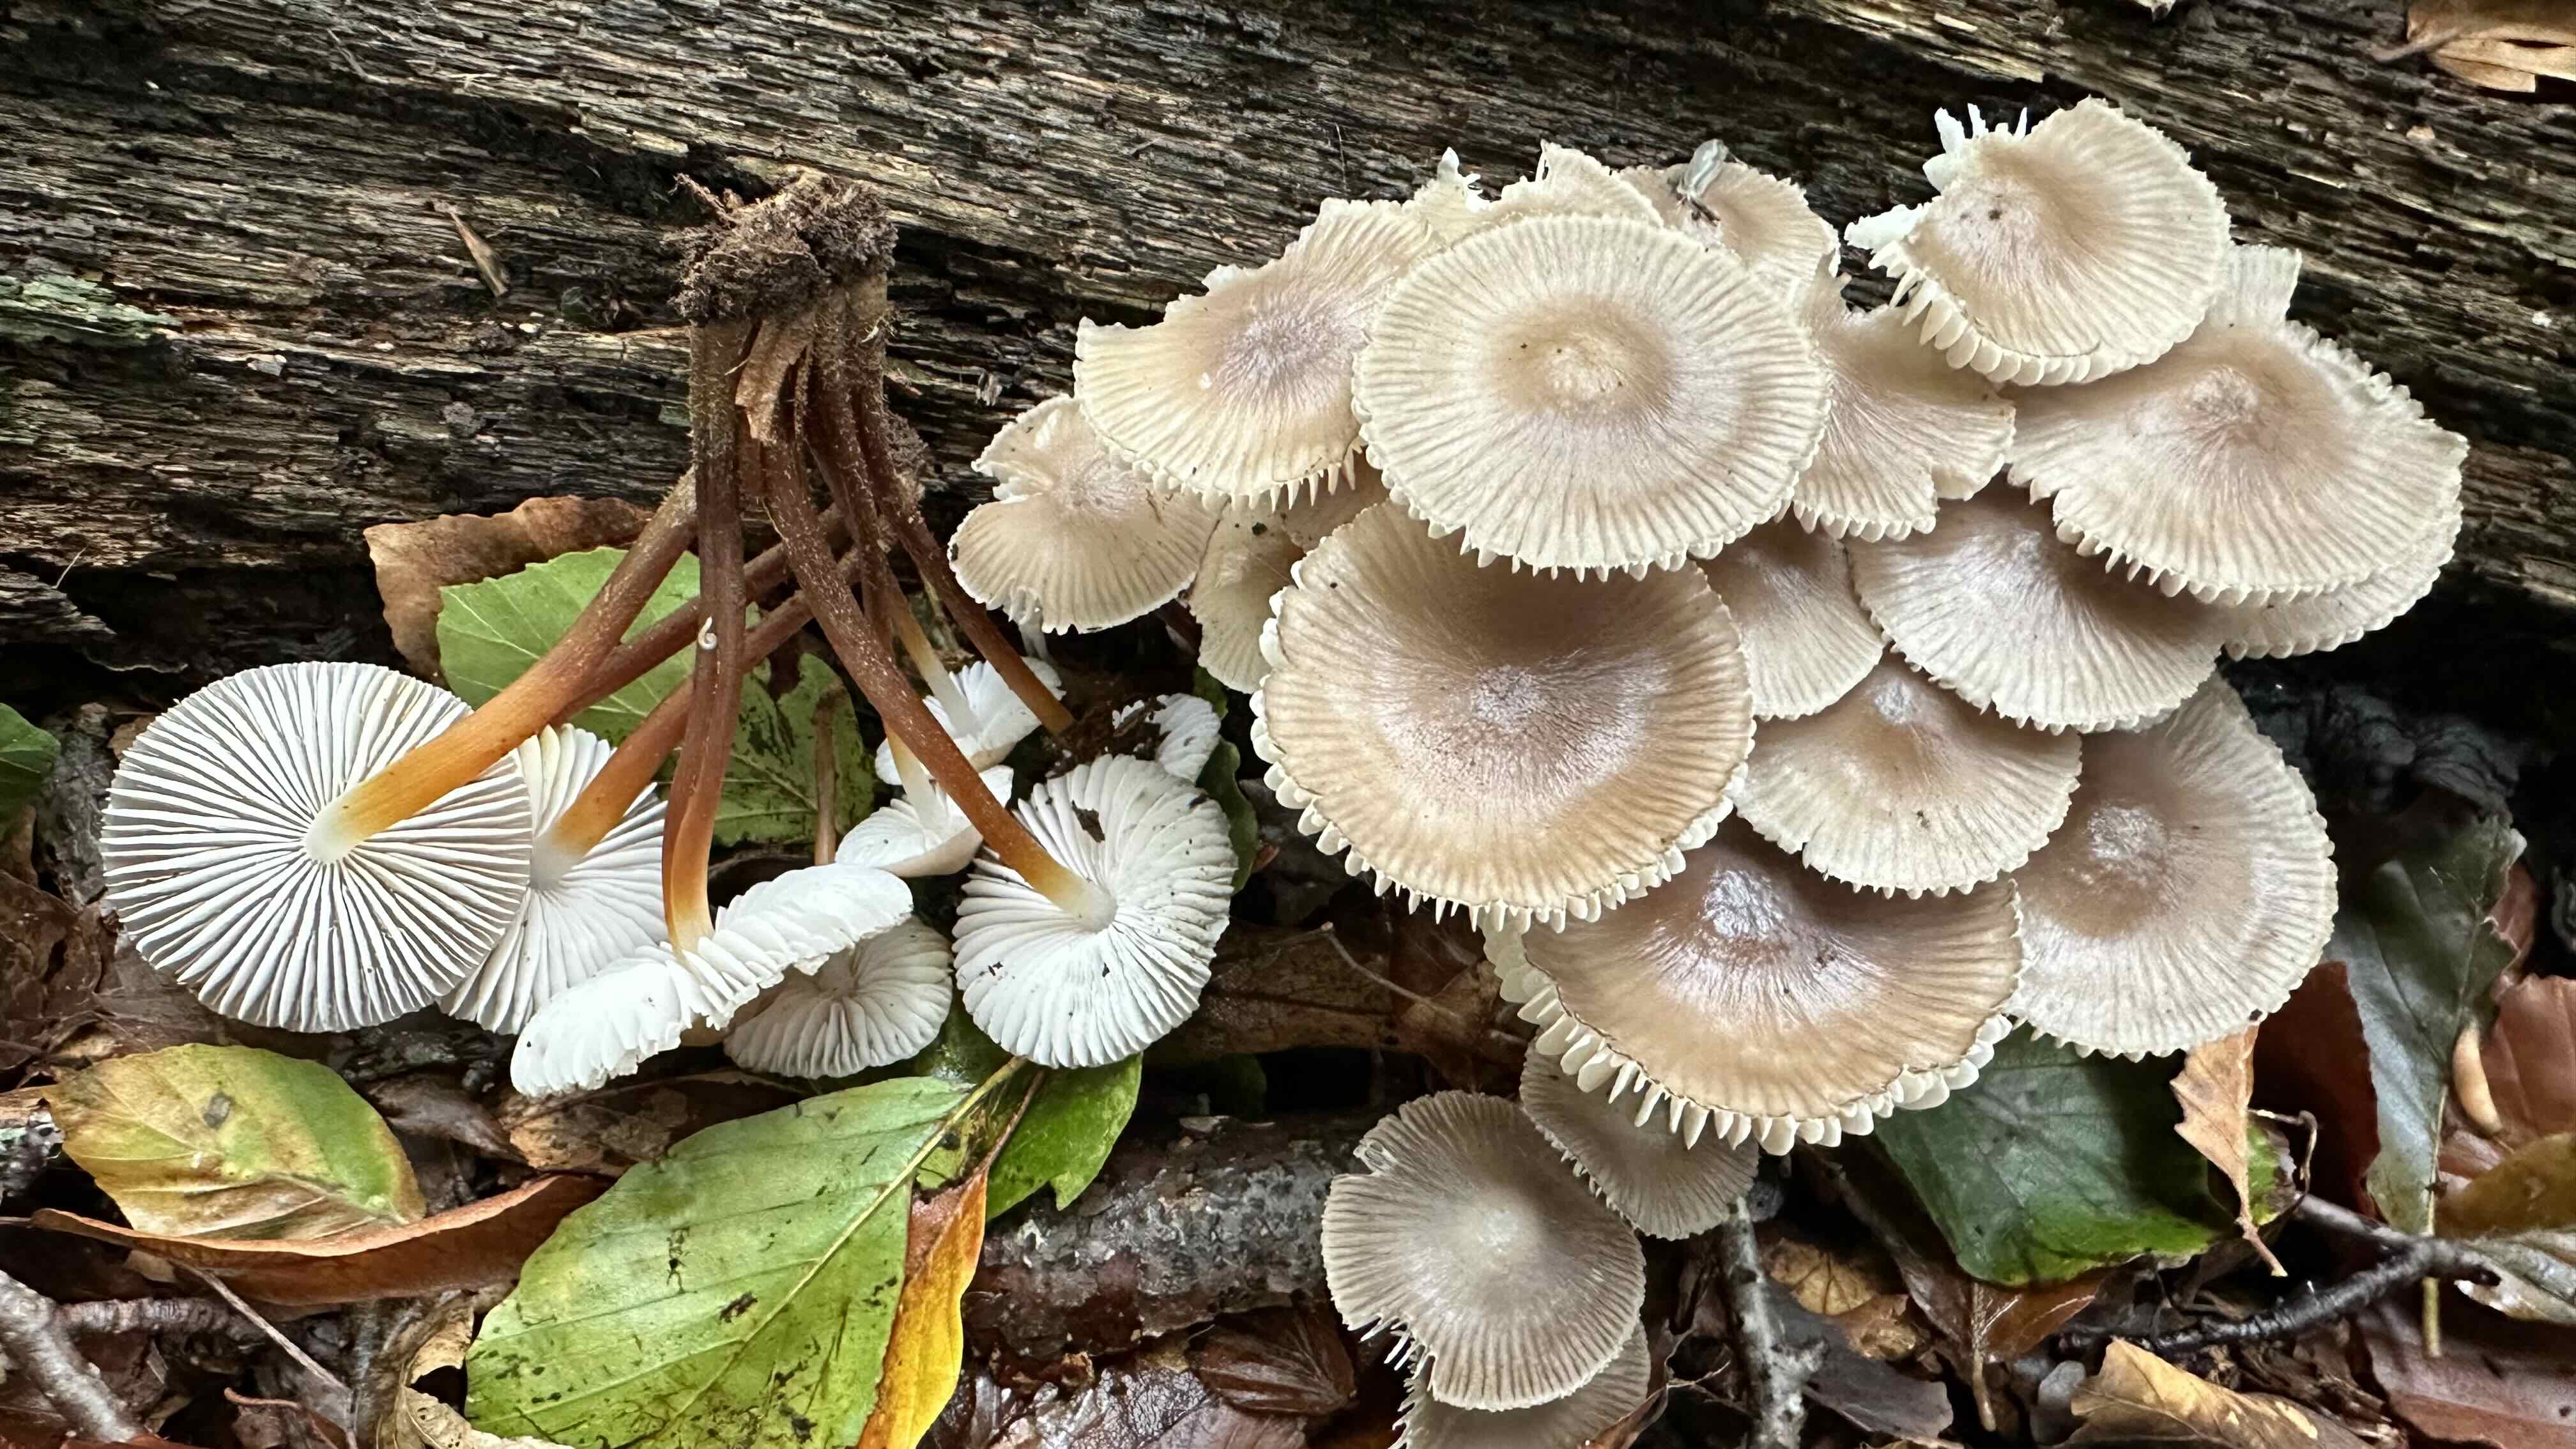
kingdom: Fungi
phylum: Basidiomycota
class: Agaricomycetes
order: Agaricales
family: Mycenaceae
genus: Mycena
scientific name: Mycena inclinata
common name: nikkende huesvamp
